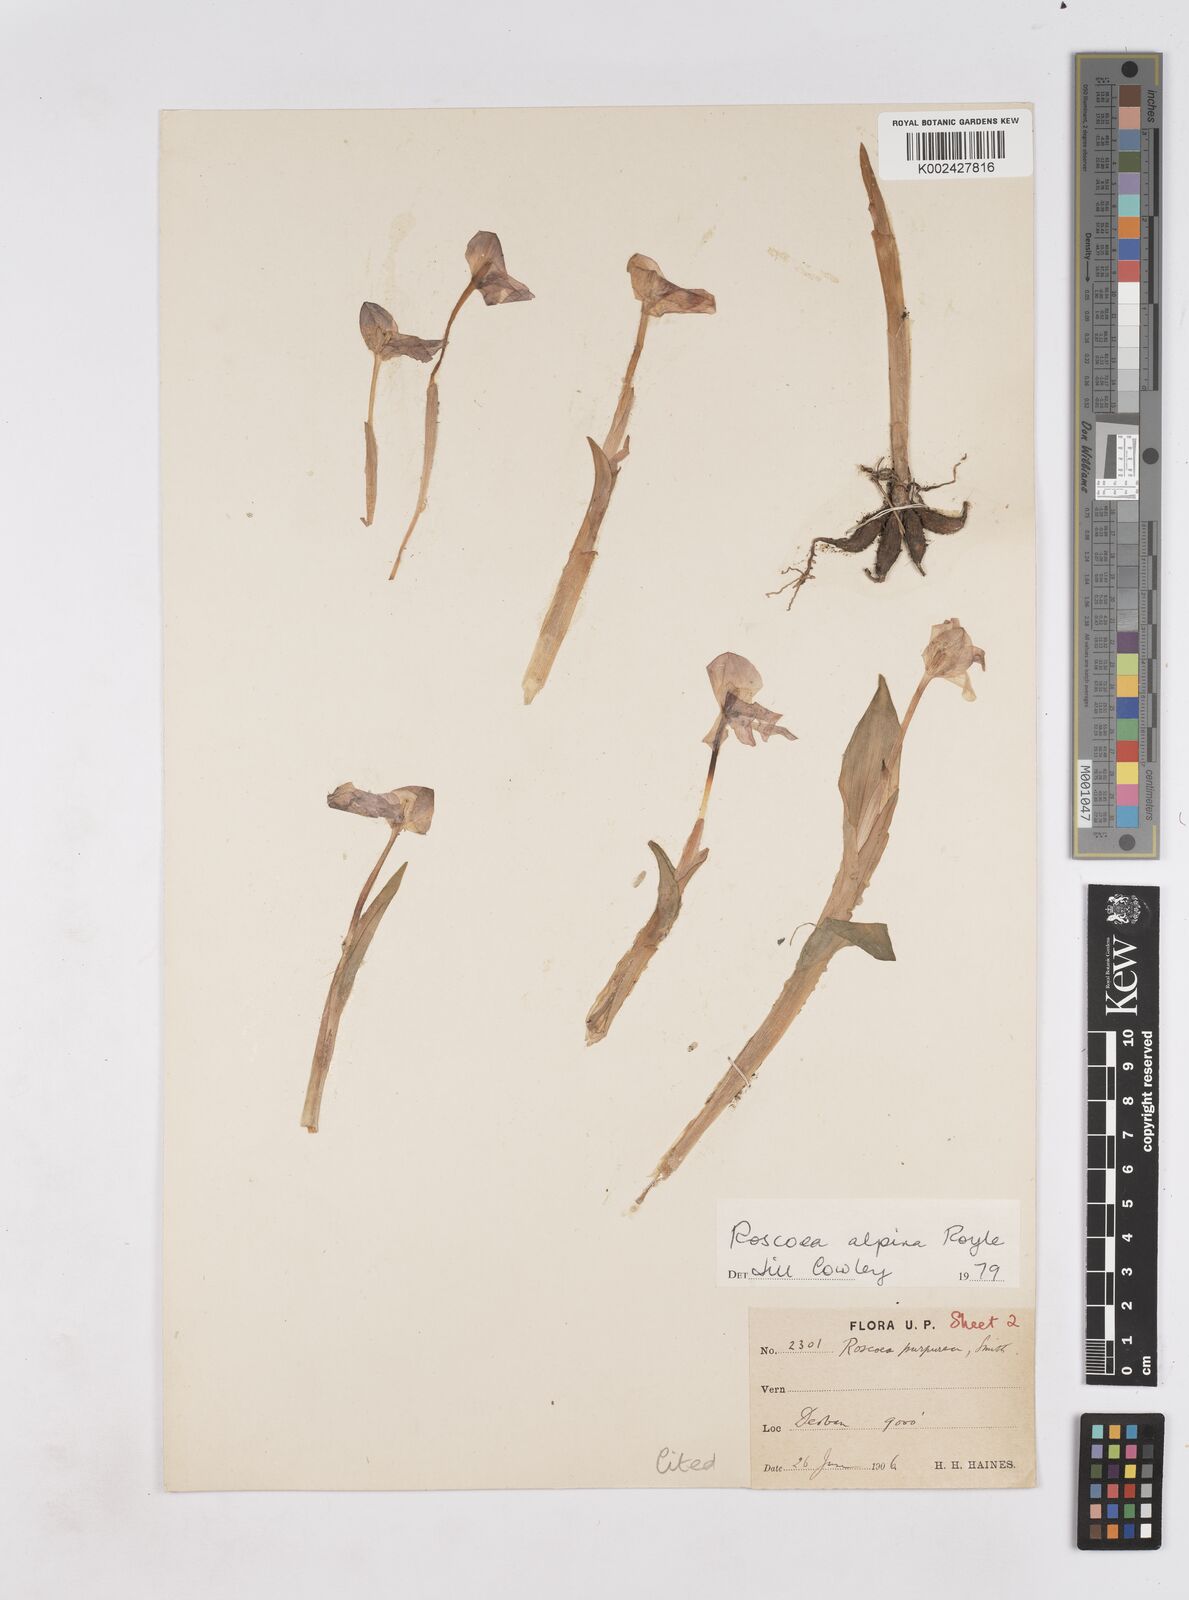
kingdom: Plantae
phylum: Tracheophyta
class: Liliopsida
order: Zingiberales
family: Zingiberaceae
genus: Roscoea
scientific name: Roscoea alpina
